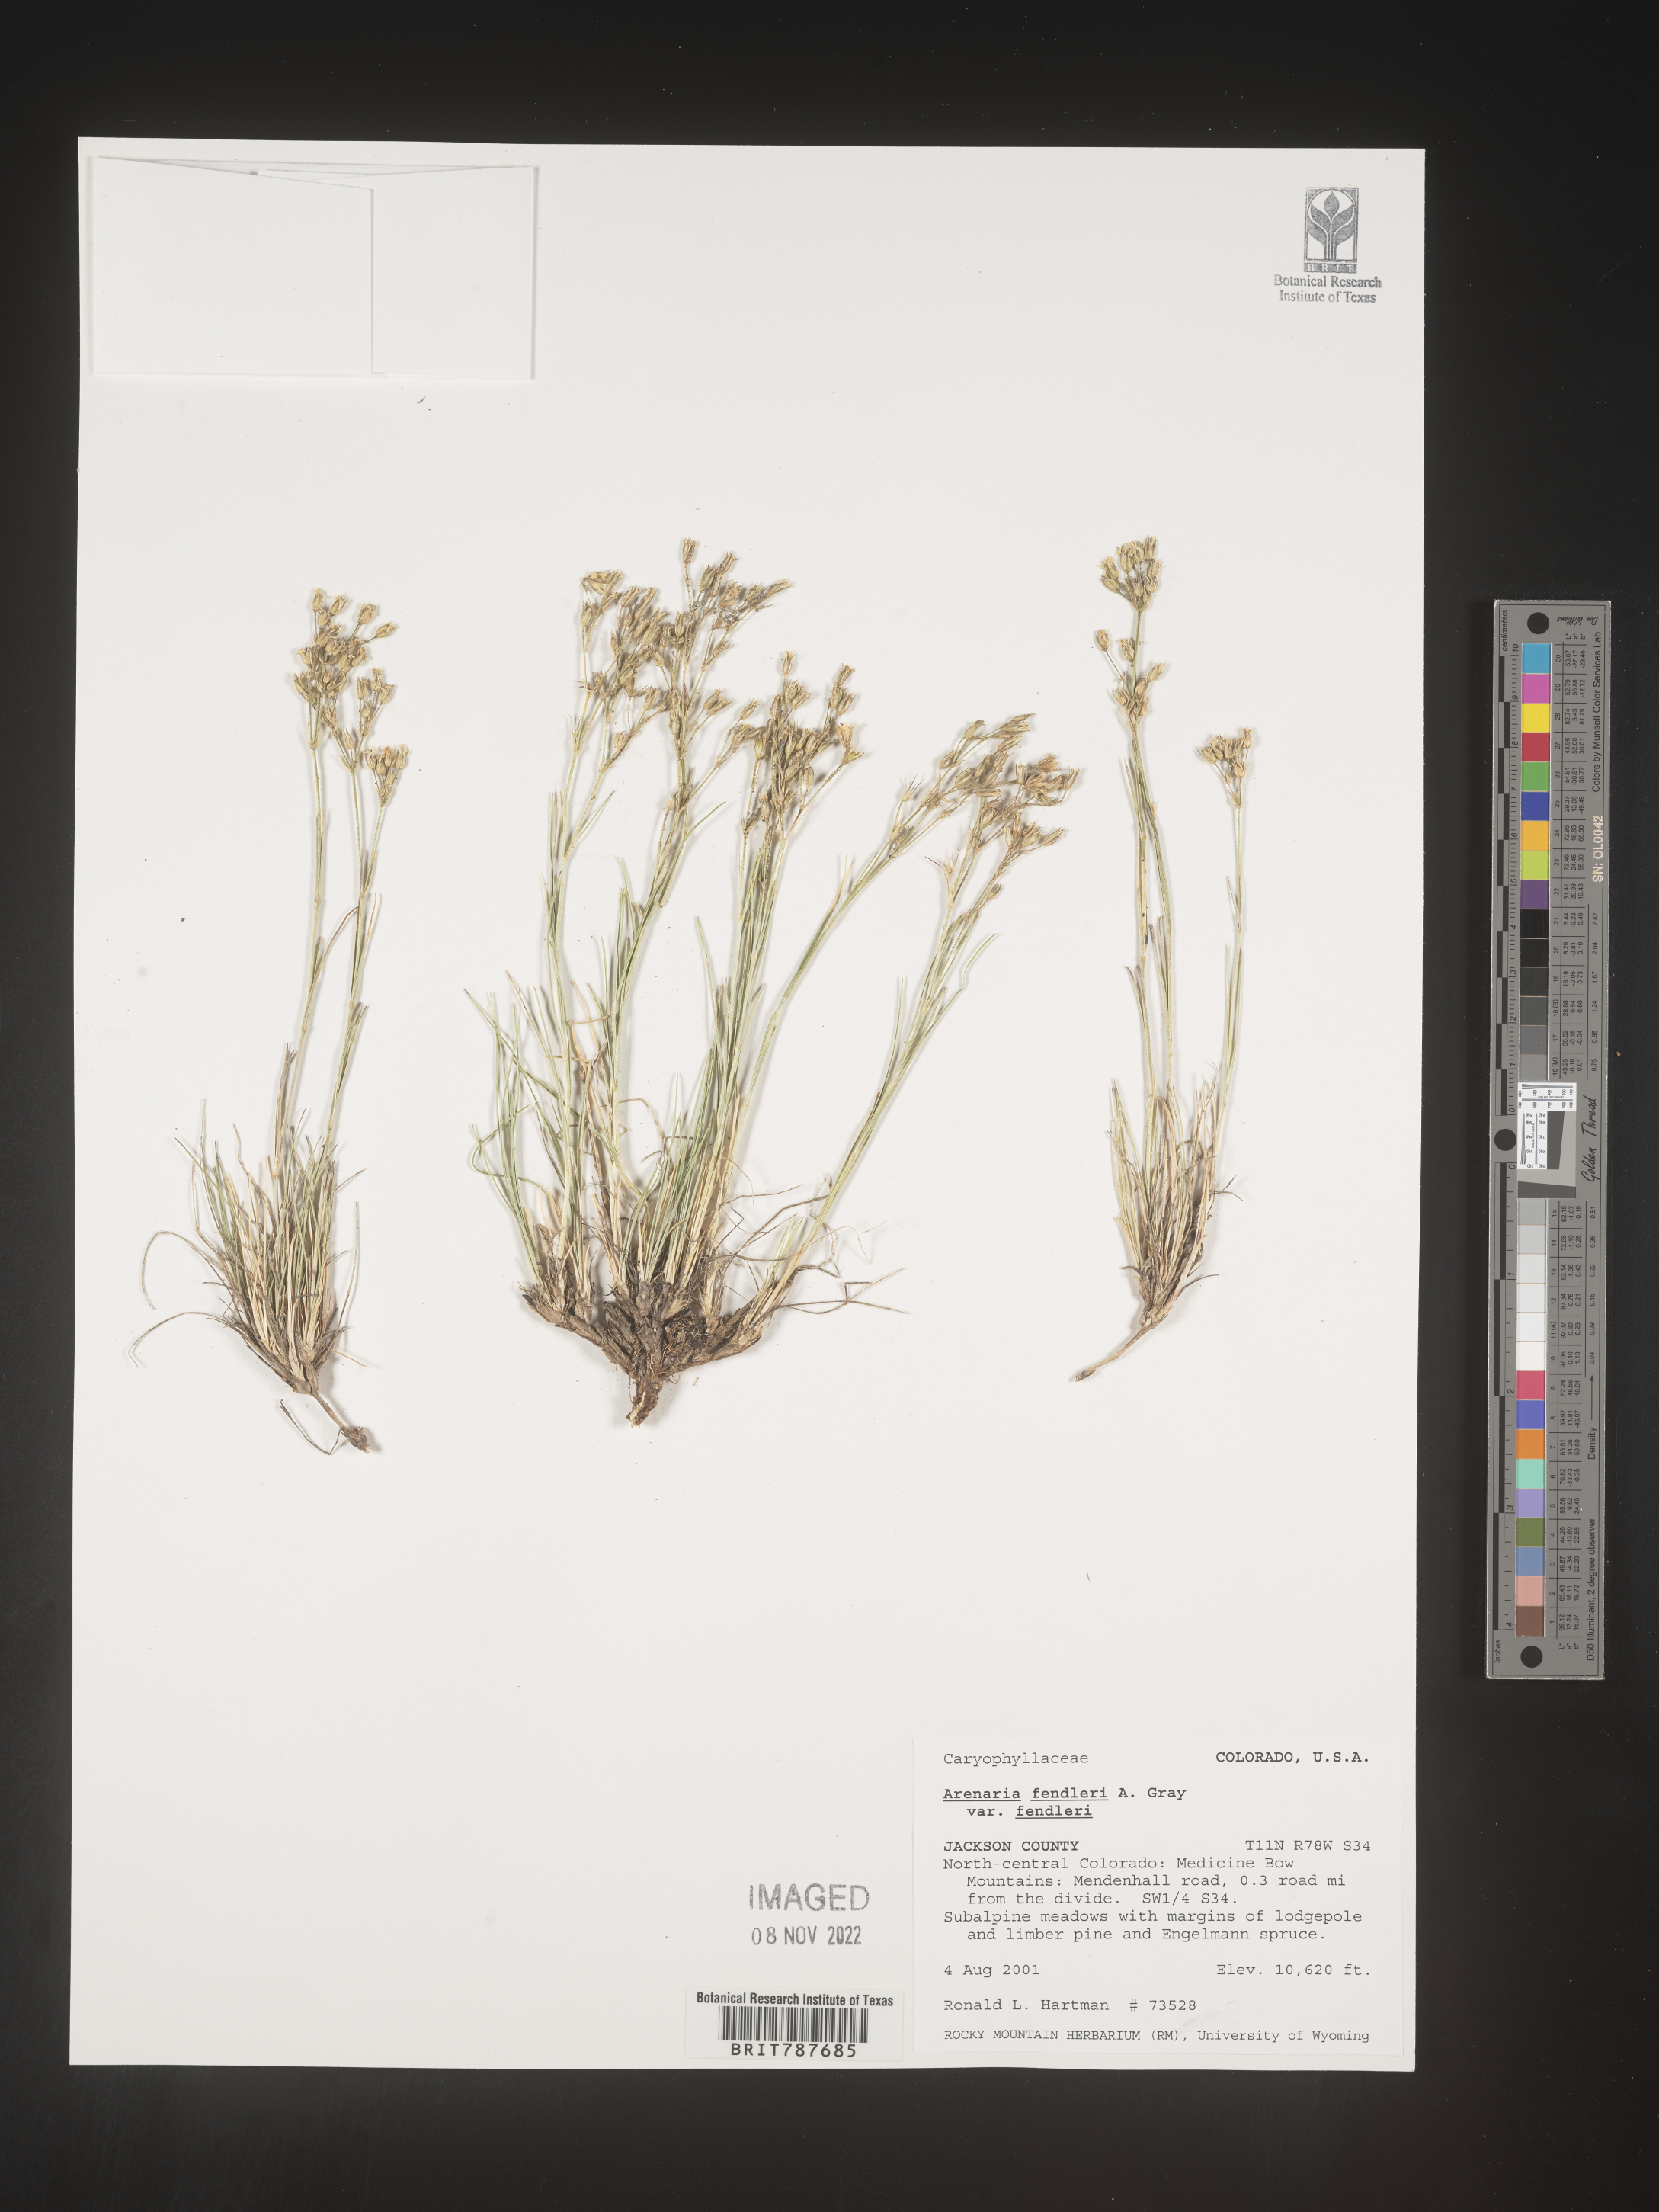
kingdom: Plantae
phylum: Tracheophyta
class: Magnoliopsida
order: Caryophyllales
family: Caryophyllaceae
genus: Arenaria
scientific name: Arenaria
